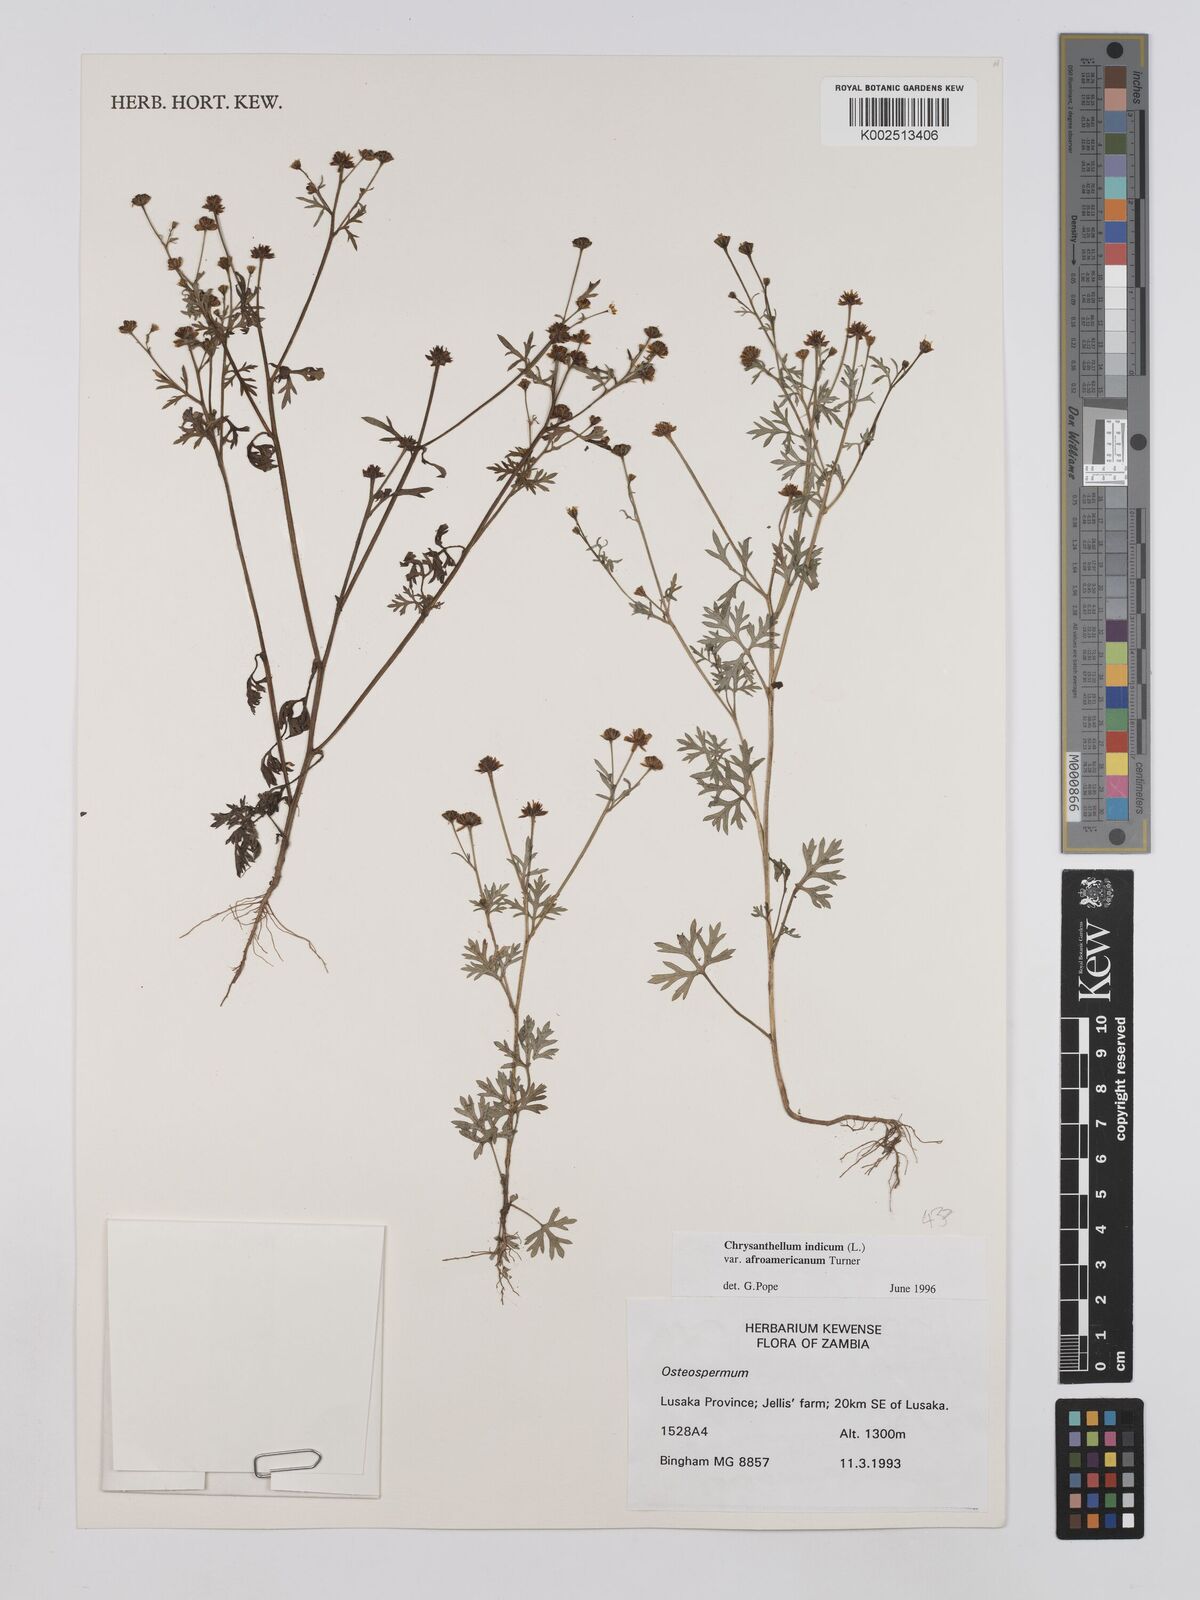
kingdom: Plantae
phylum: Tracheophyta
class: Magnoliopsida
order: Asterales
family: Asteraceae
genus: Chrysanthellum
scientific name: Chrysanthellum indicum
